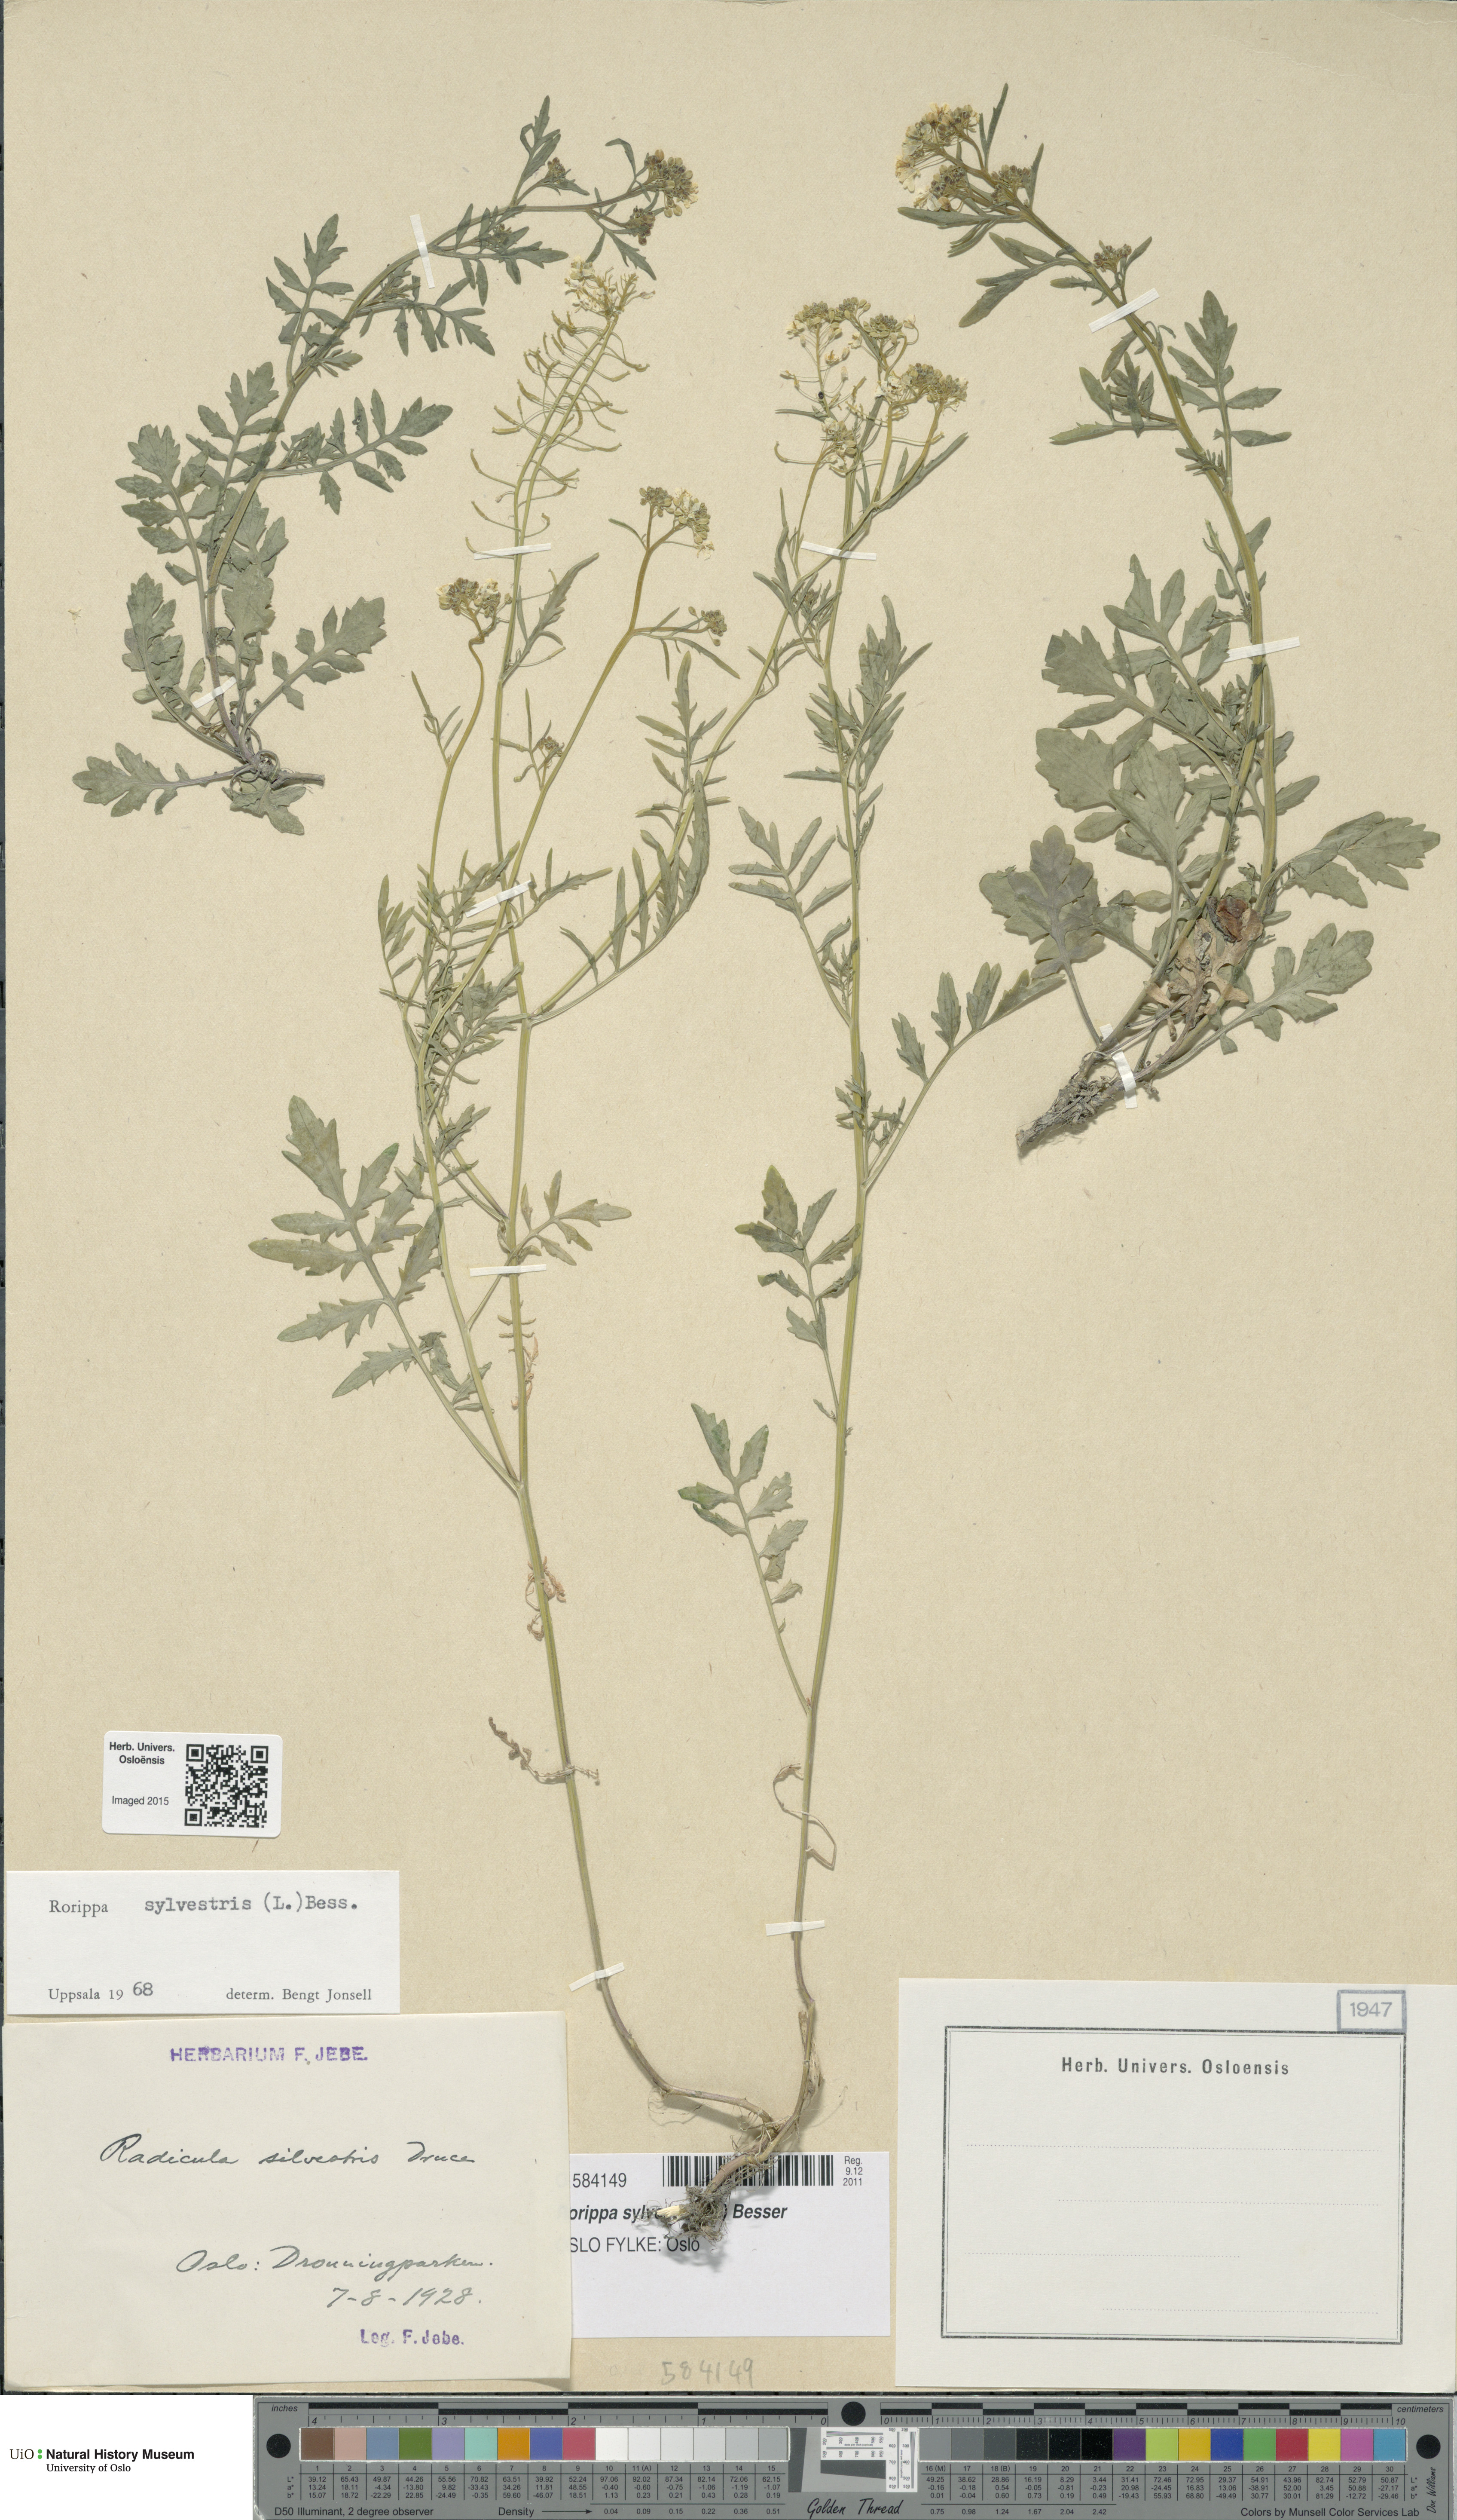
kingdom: Plantae
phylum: Tracheophyta
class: Magnoliopsida
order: Brassicales
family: Brassicaceae
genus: Rorippa
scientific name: Rorippa sylvestris
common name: Creeping yellowcress
